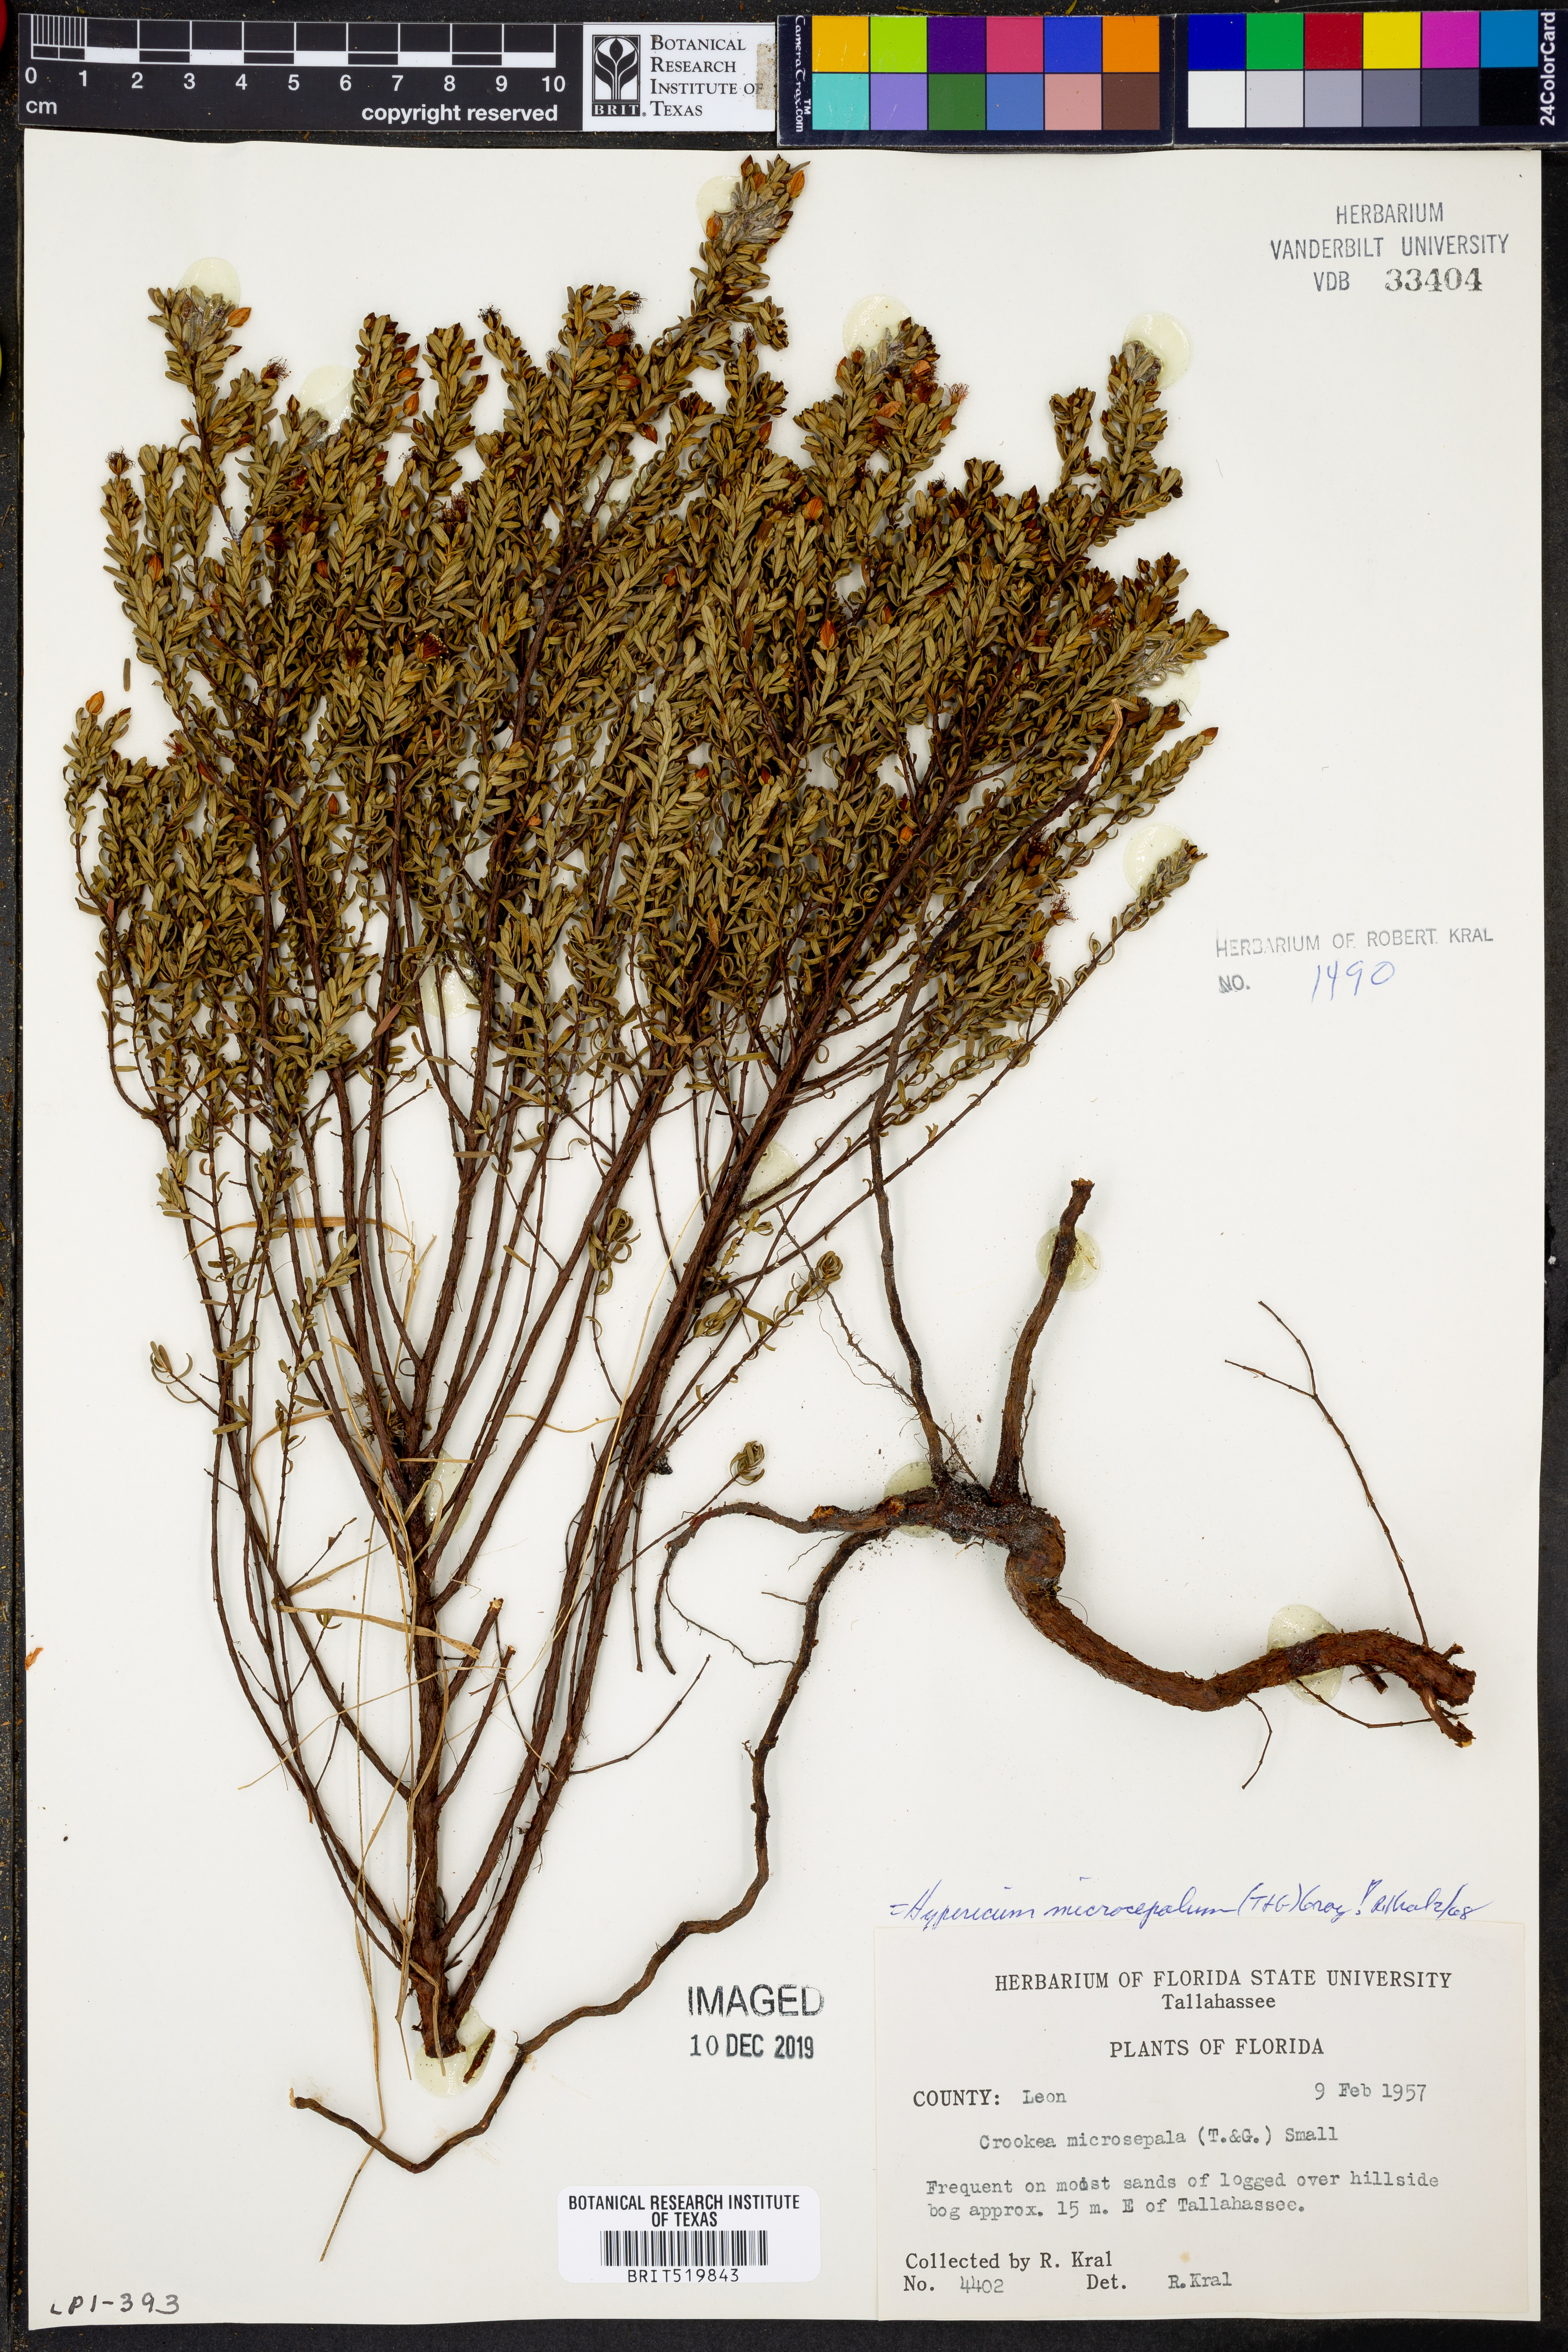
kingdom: Plantae
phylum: Tracheophyta
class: Magnoliopsida
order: Malpighiales
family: Hypericaceae
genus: Hypericum
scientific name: Hypericum microsepalum
